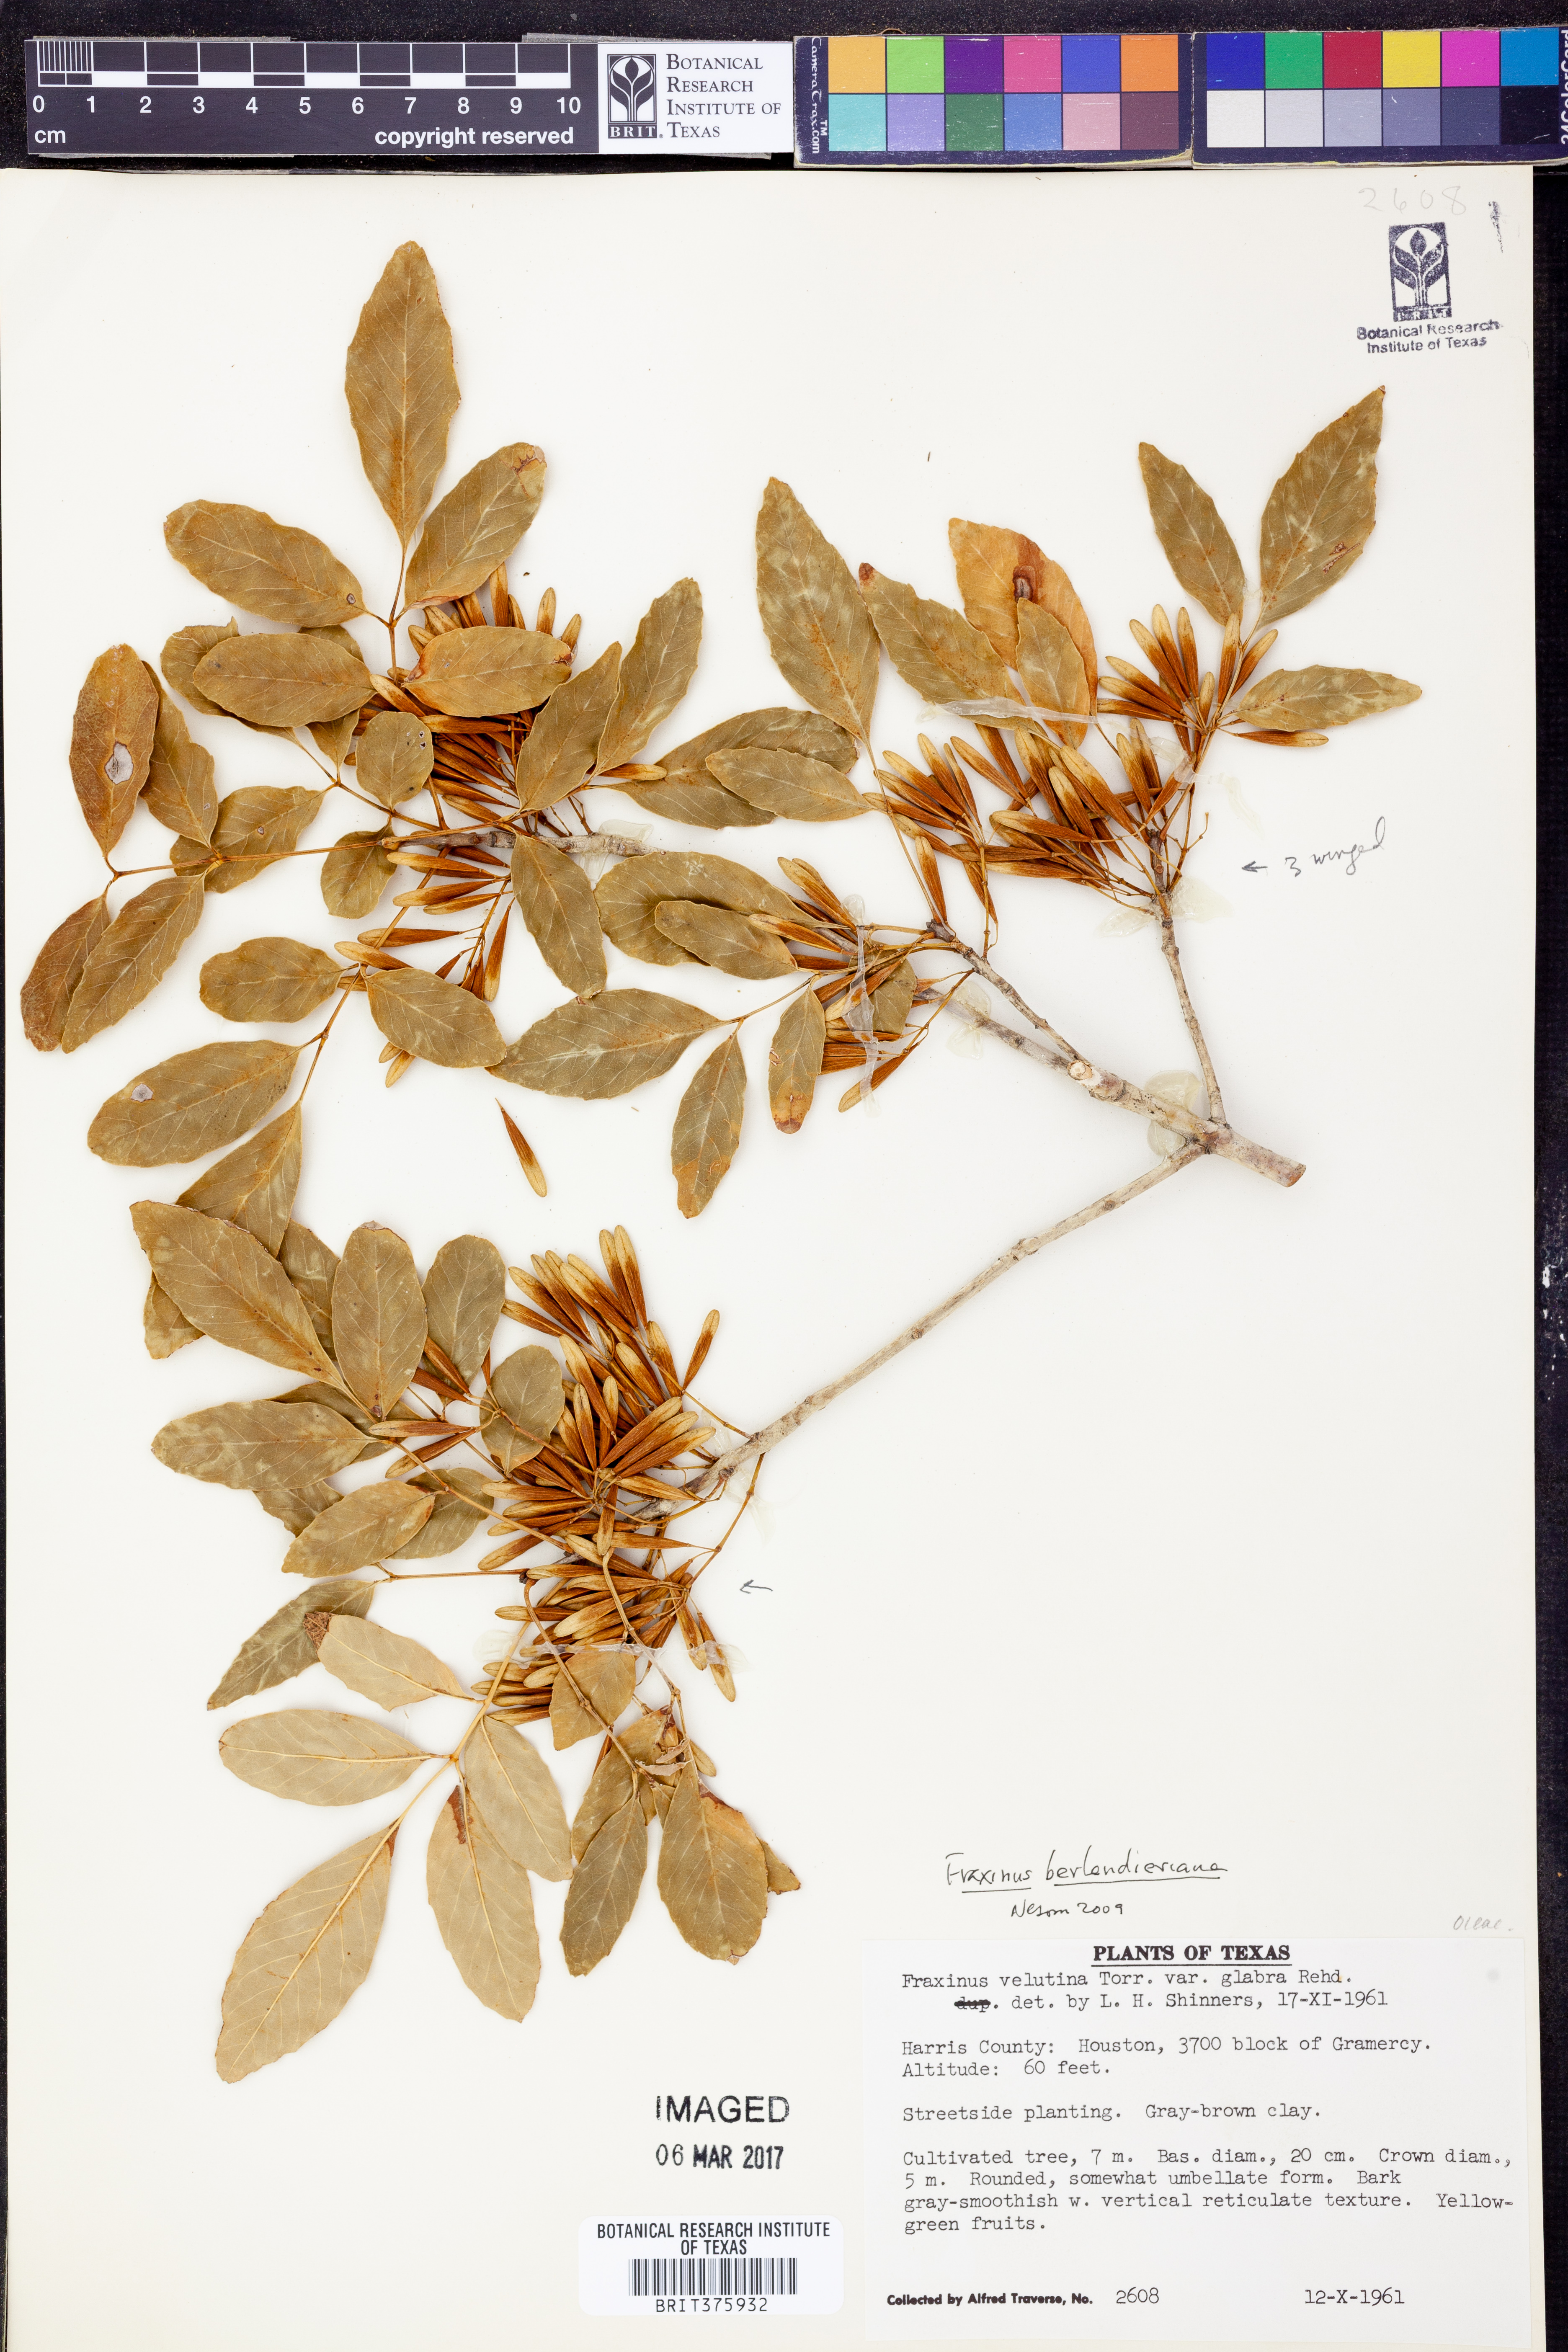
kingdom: Plantae
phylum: Tracheophyta
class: Magnoliopsida
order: Lamiales
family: Oleaceae
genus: Fraxinus
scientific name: Fraxinus berlandieriana
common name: Berlandier ash
